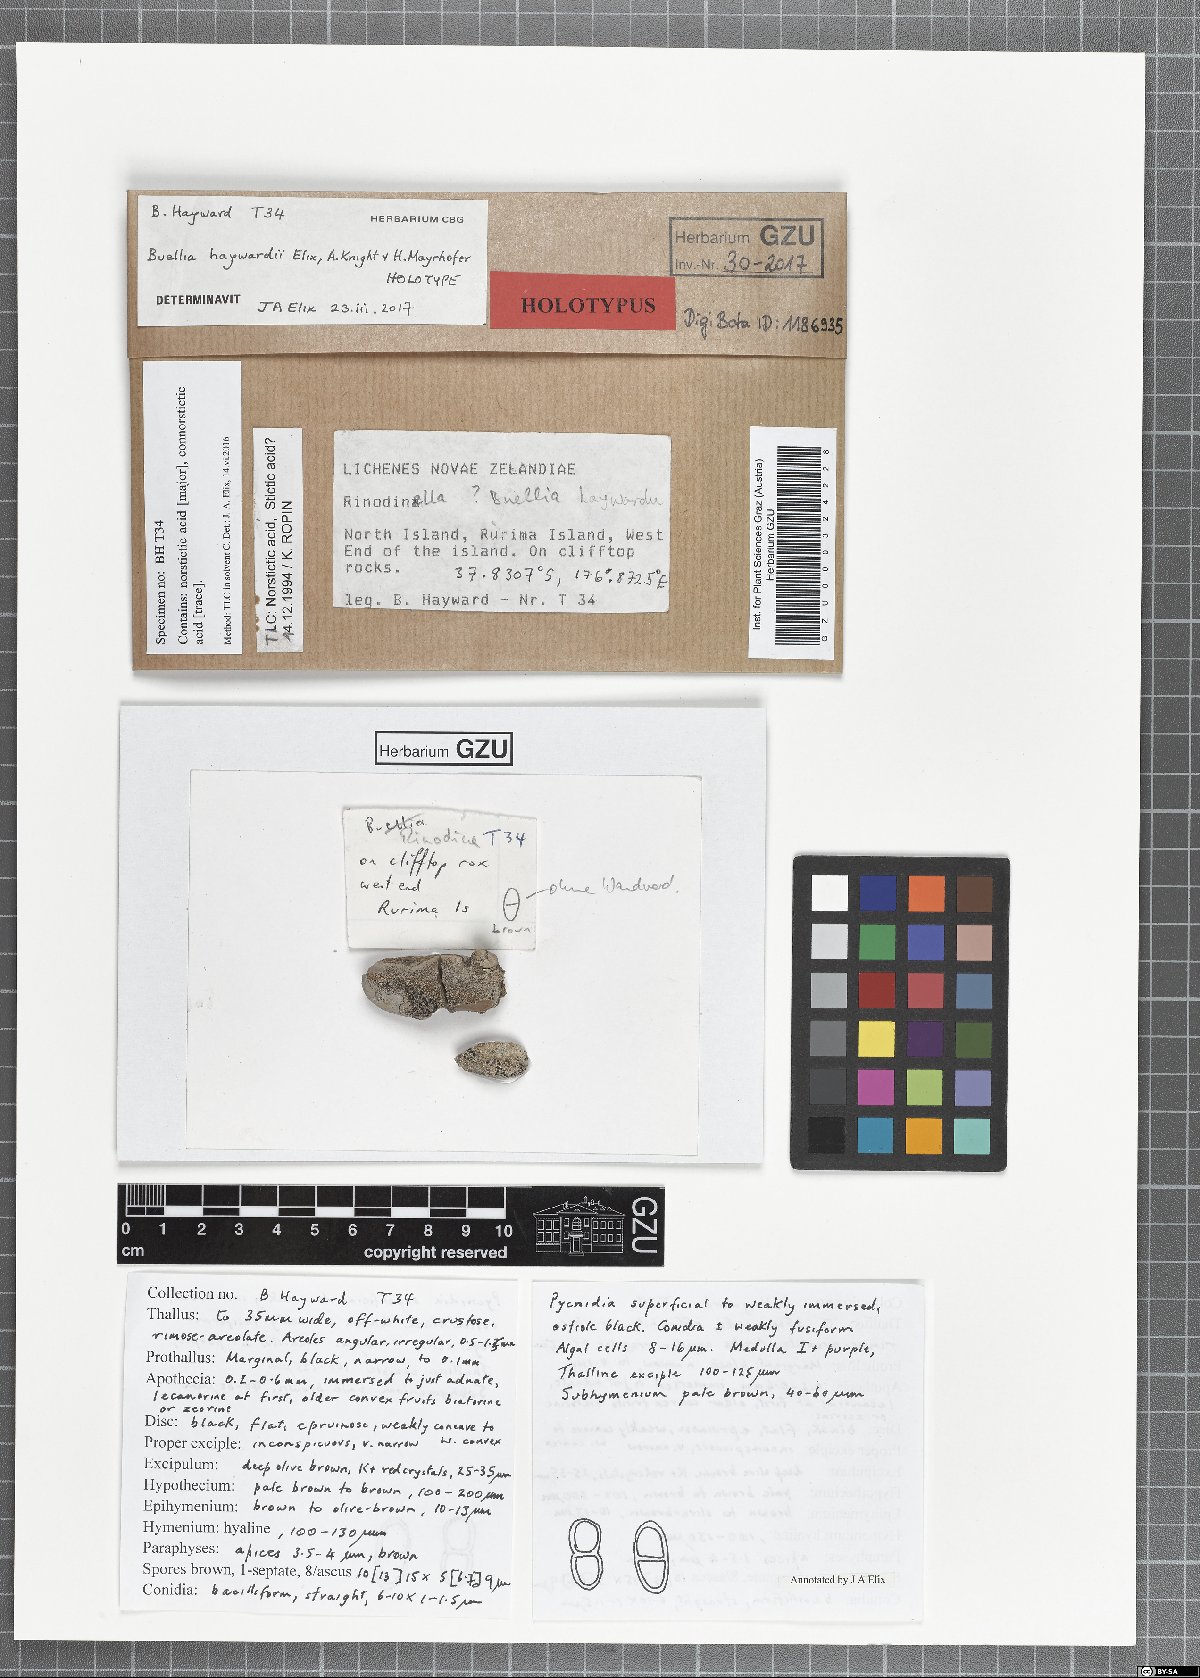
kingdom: Fungi
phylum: Ascomycota
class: Lecanoromycetes
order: Caliciales
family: Caliciaceae
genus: Buellia
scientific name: Buellia haywardii
